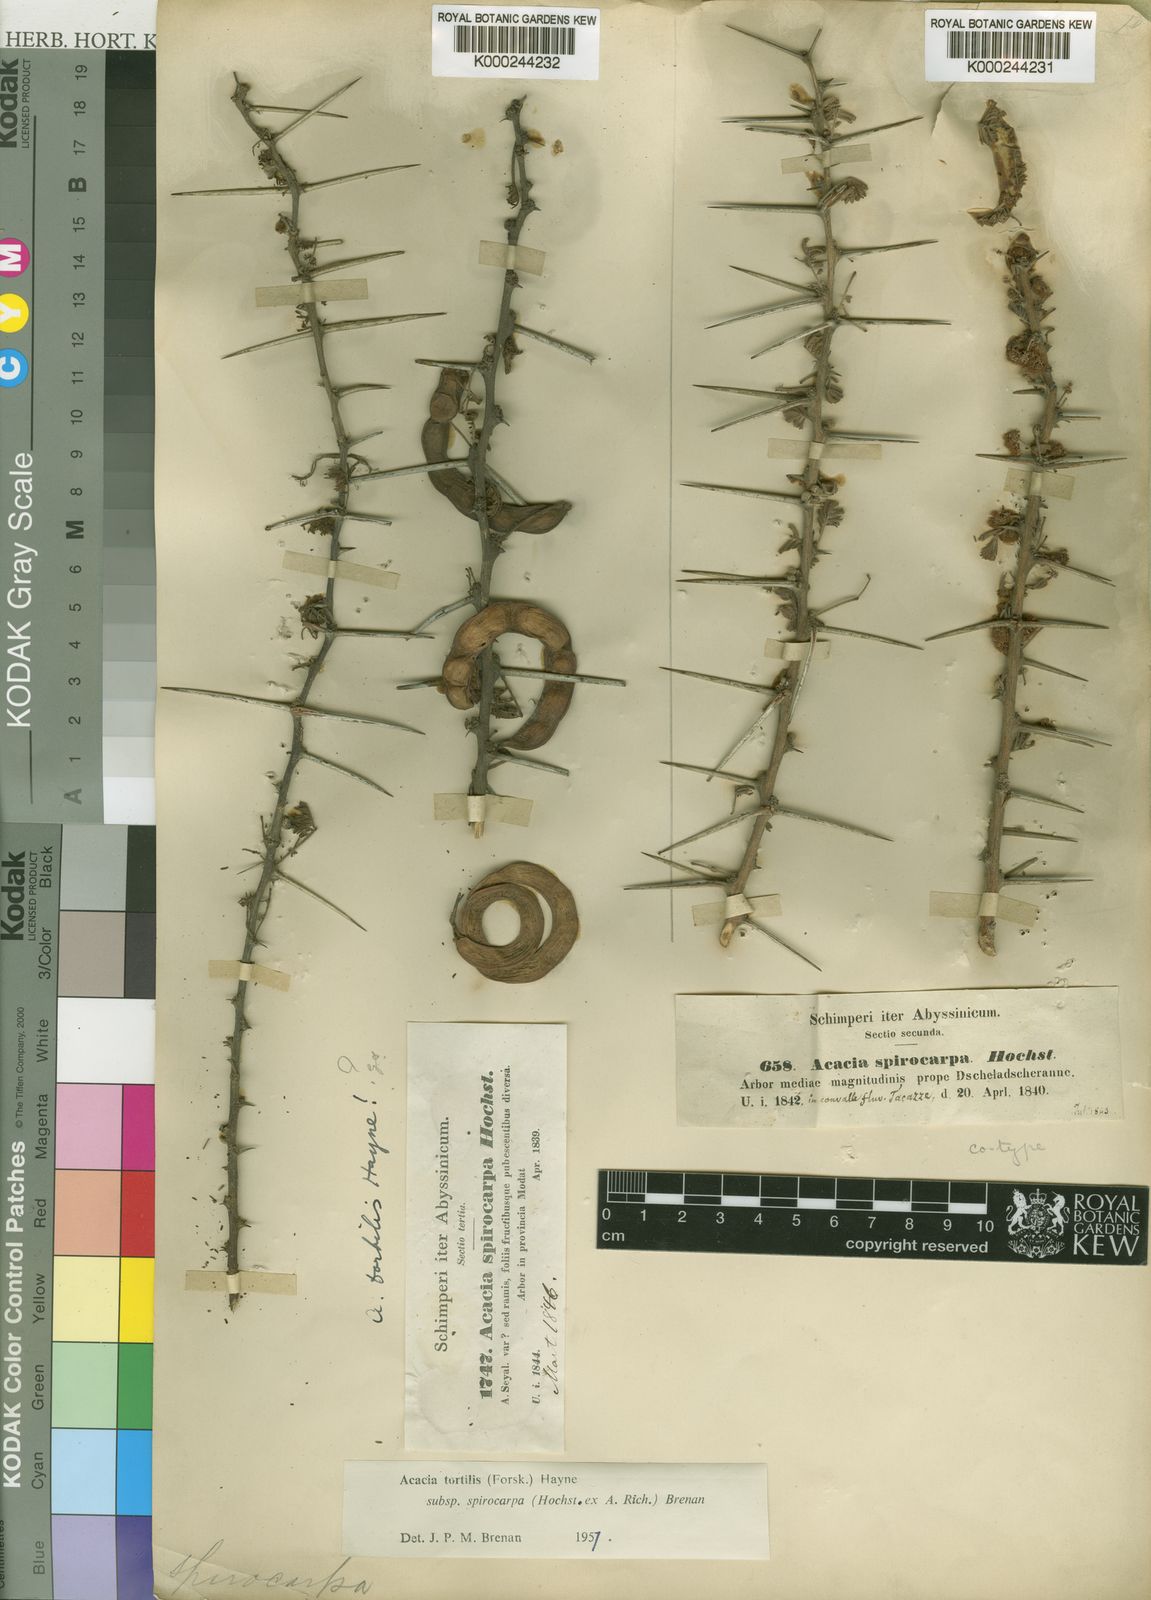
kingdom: Plantae
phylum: Tracheophyta
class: Magnoliopsida
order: Fabales
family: Fabaceae
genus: Vachellia
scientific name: Vachellia tortilis
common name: Umbrella thorn acacia
